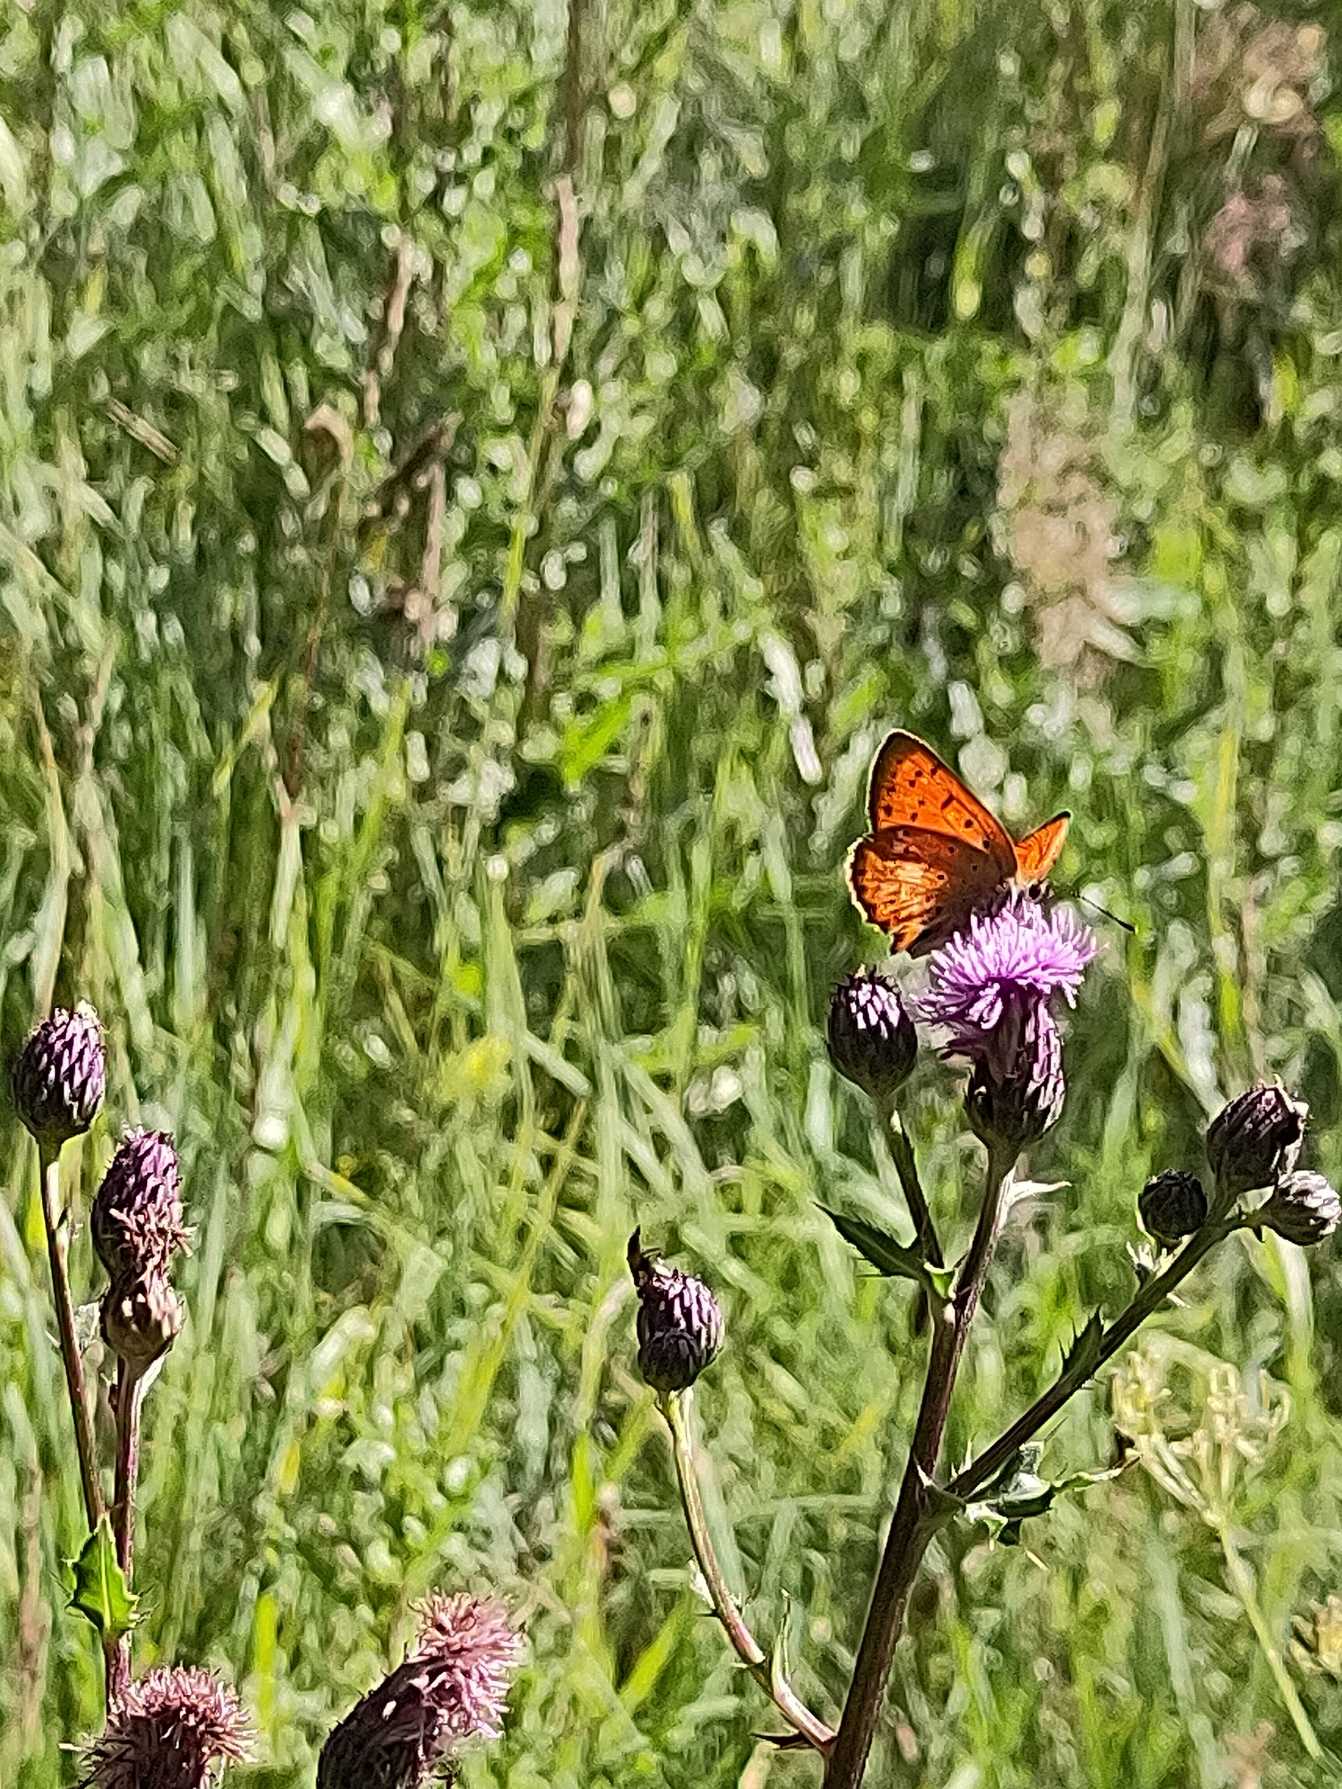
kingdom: Animalia
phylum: Arthropoda
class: Insecta
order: Lepidoptera
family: Lycaenidae
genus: Lycaena
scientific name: Lycaena virgaureae
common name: Dukatsommerfugl
